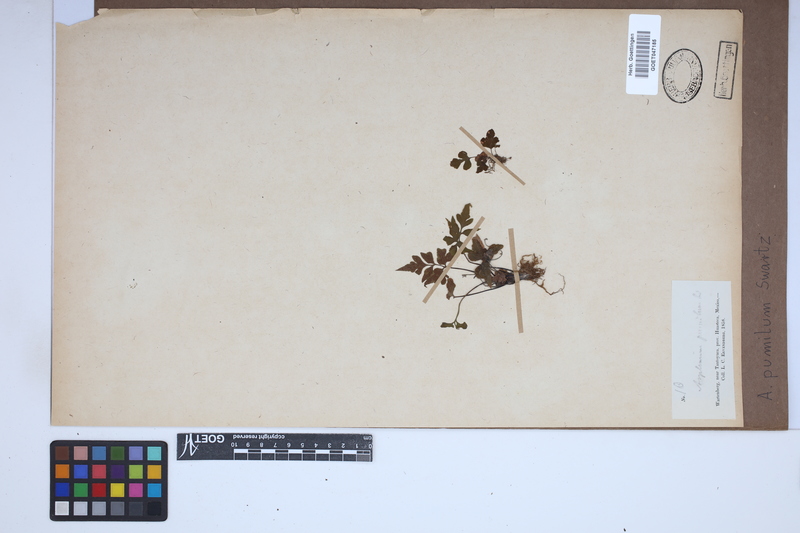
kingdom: Plantae
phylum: Tracheophyta
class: Polypodiopsida
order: Polypodiales
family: Aspleniaceae
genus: Asplenium
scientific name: Asplenium pumilum
